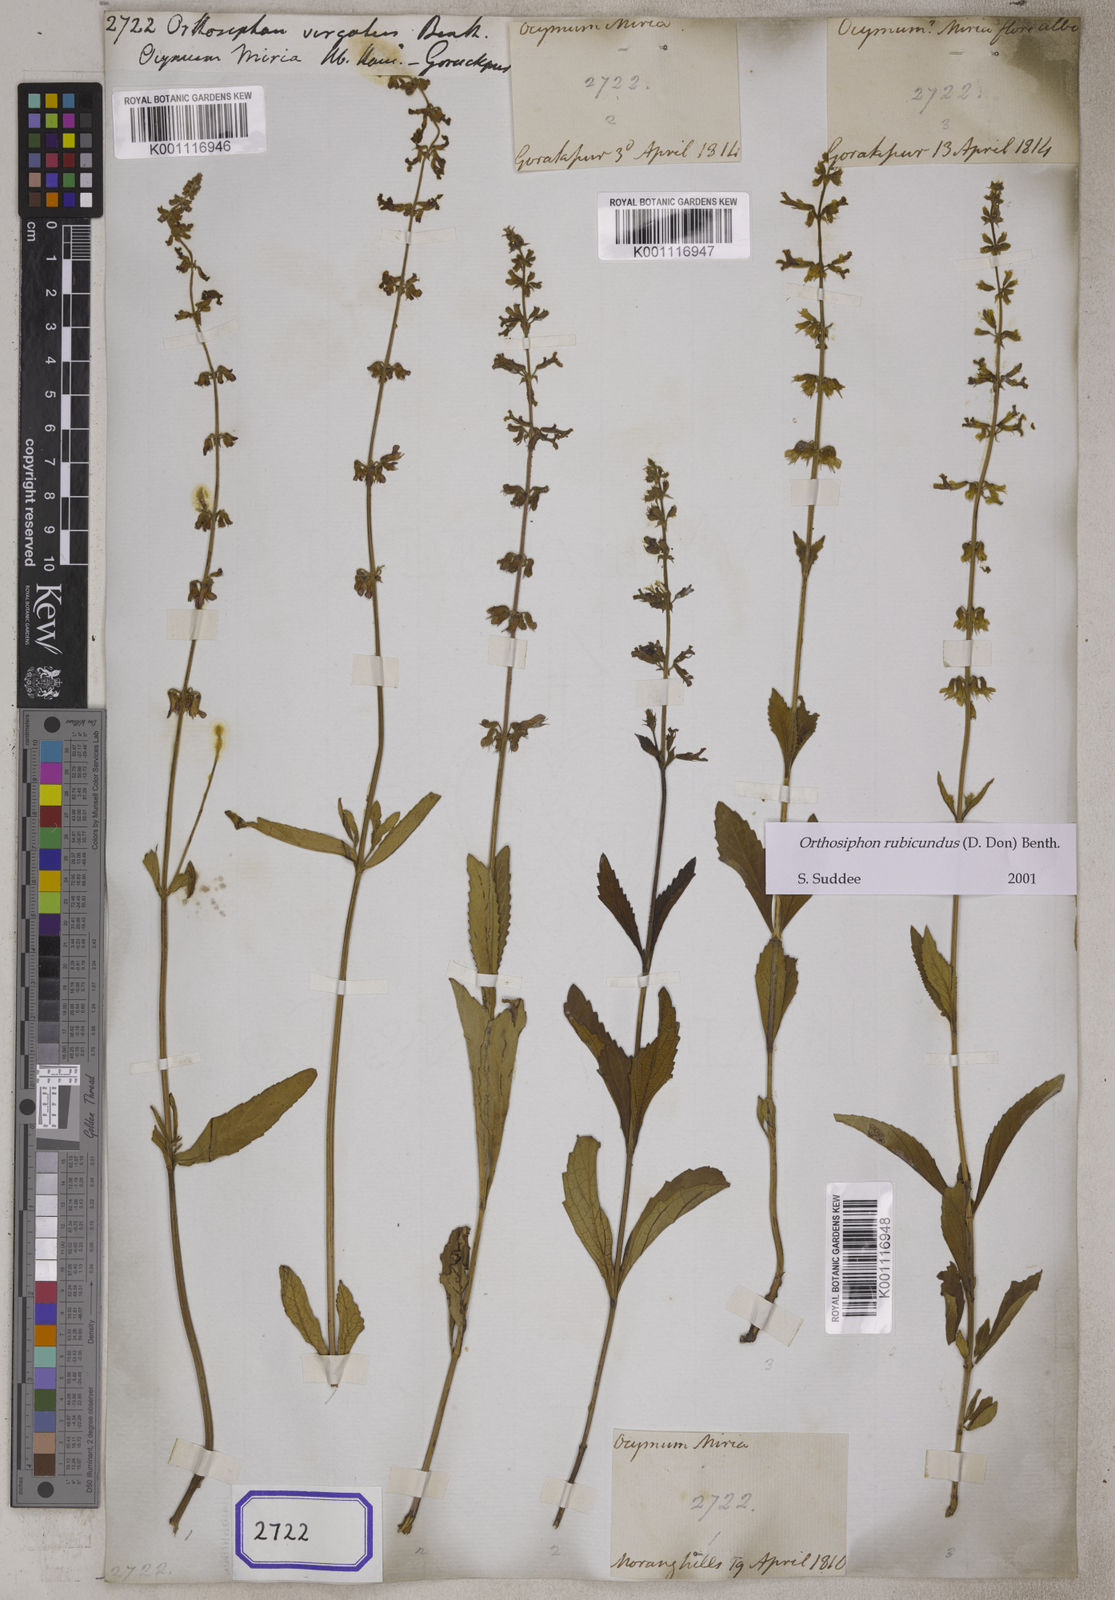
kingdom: Plantae
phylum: Tracheophyta
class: Magnoliopsida
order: Lamiales
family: Lamiaceae
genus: Orthosiphon
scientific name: Orthosiphon rubicundus
